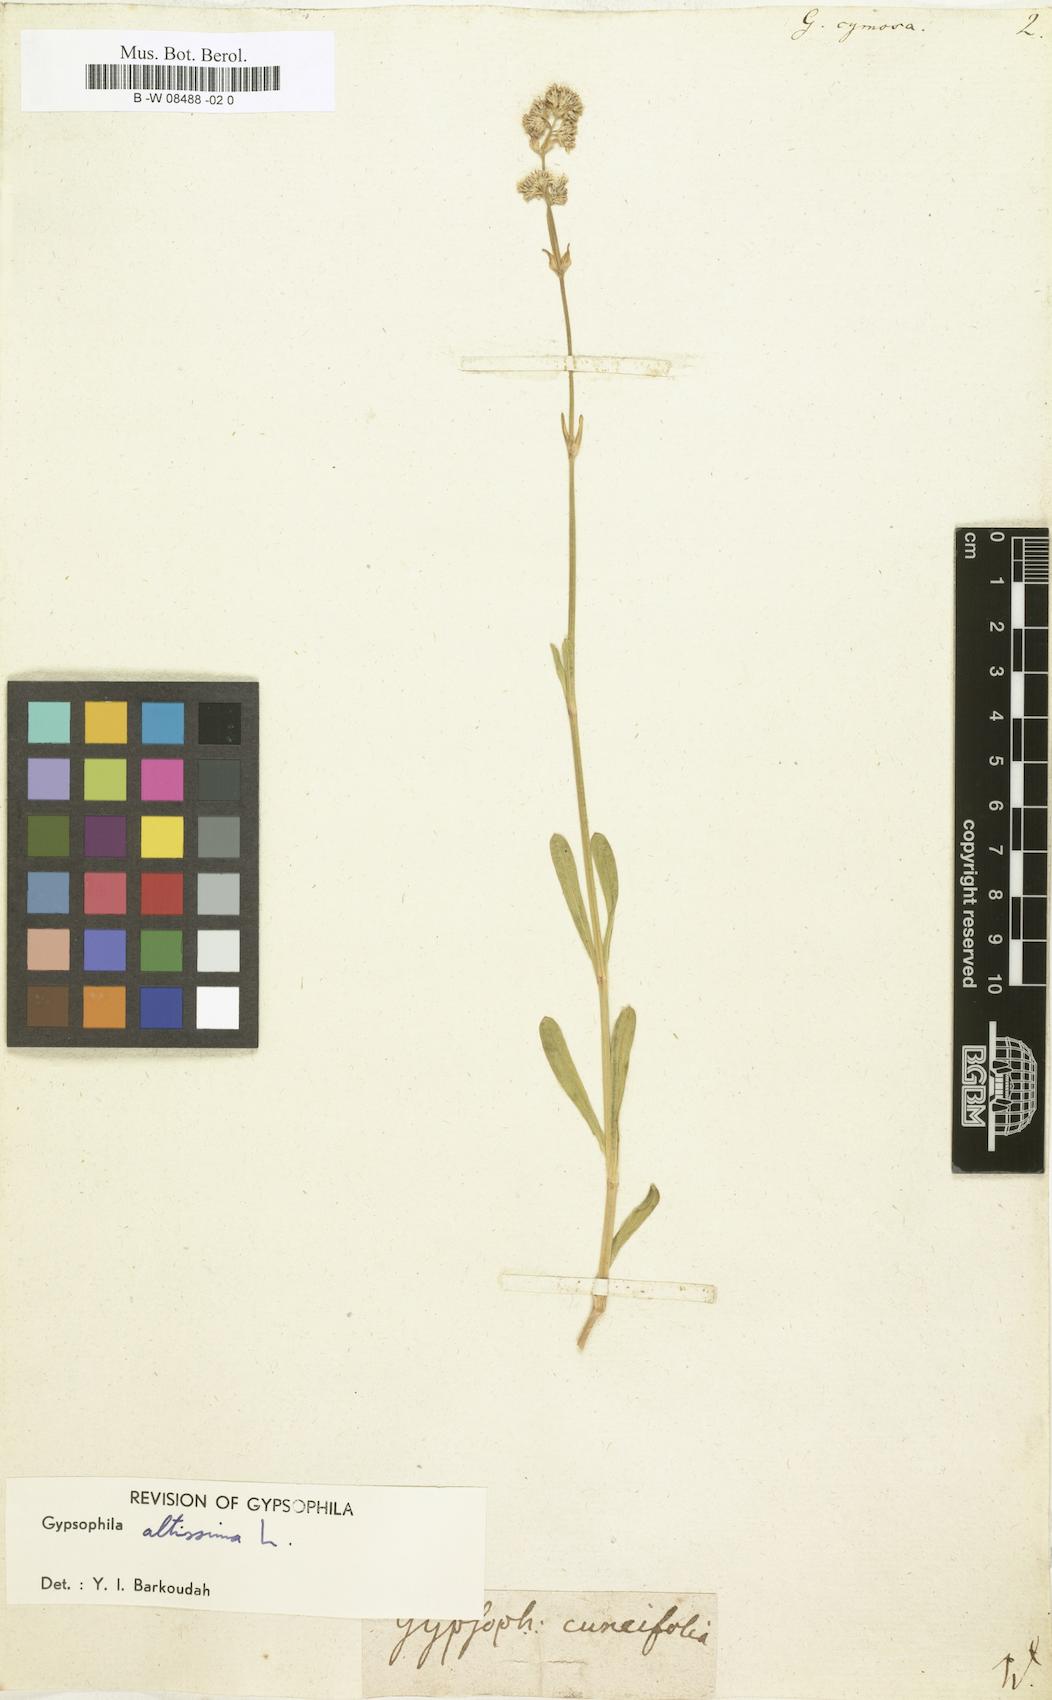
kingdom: Plantae
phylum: Tracheophyta
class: Magnoliopsida
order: Caryophyllales
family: Caryophyllaceae
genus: Gypsophila
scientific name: Gypsophila
